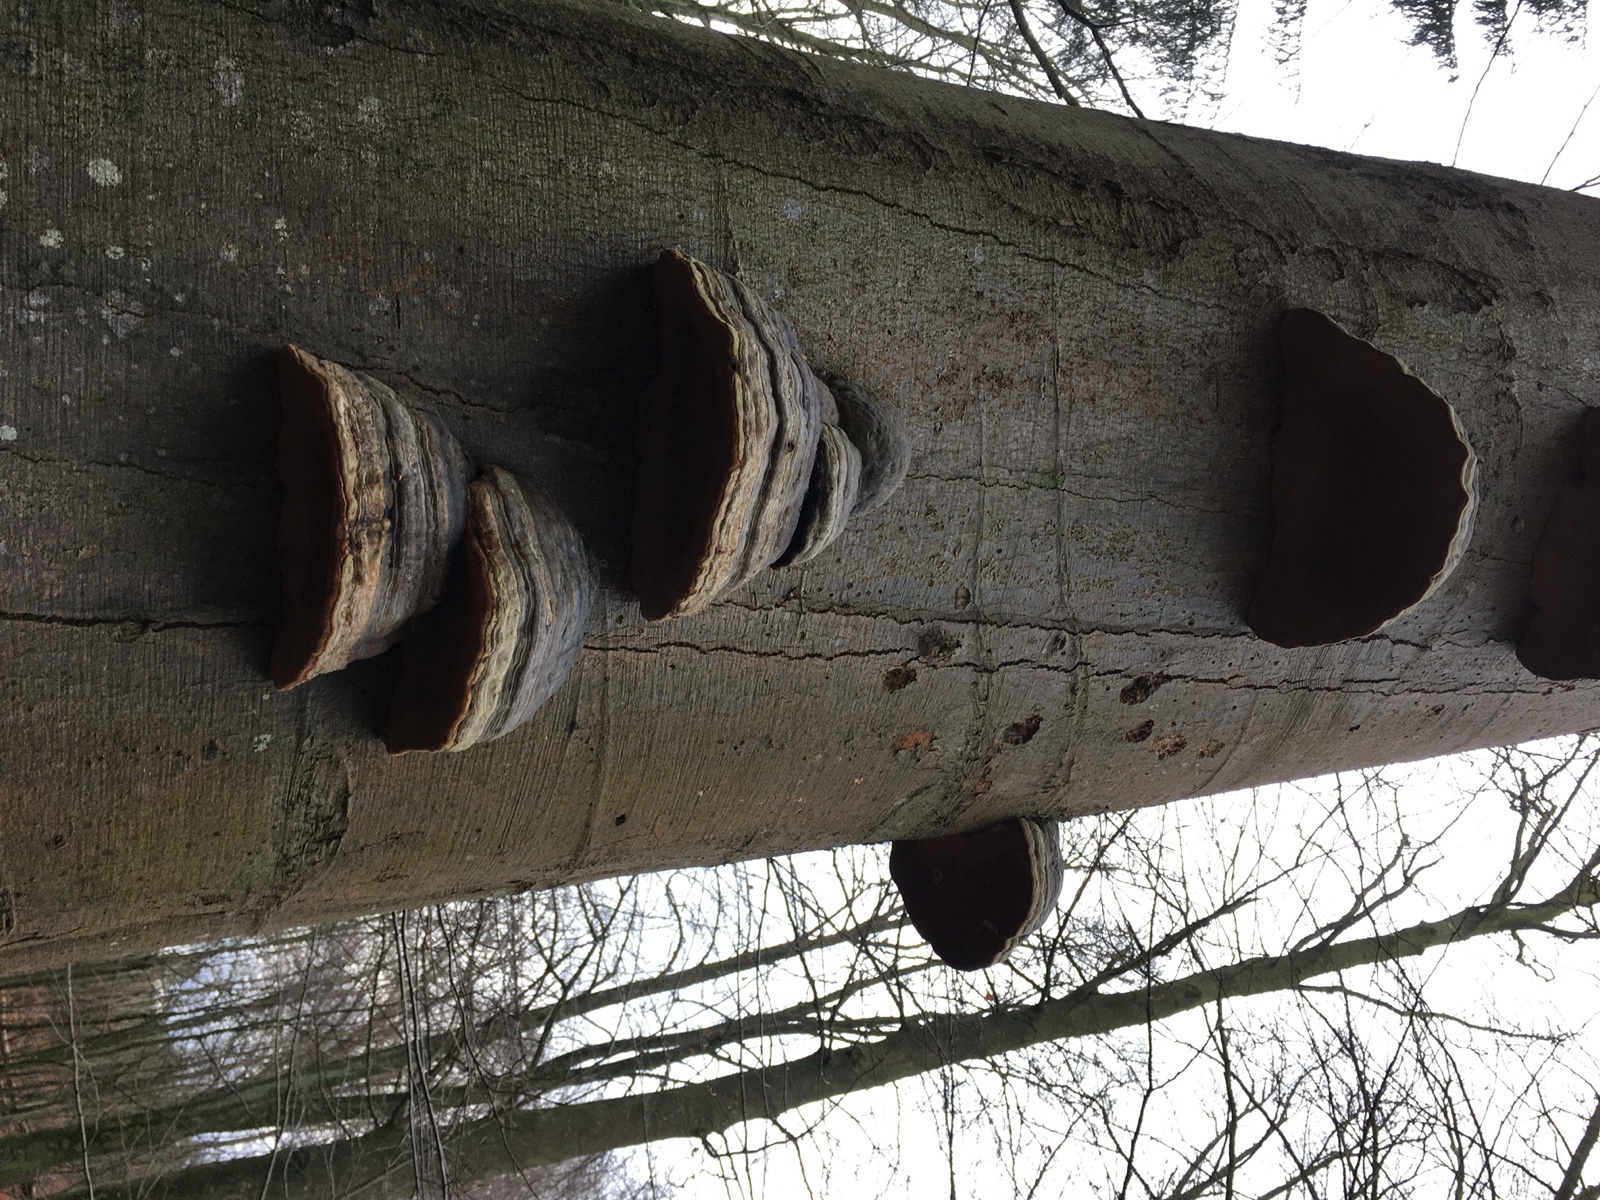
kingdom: Fungi
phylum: Basidiomycota
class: Agaricomycetes
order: Polyporales
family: Polyporaceae
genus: Fomes
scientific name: Fomes fomentarius
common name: tøndersvamp
